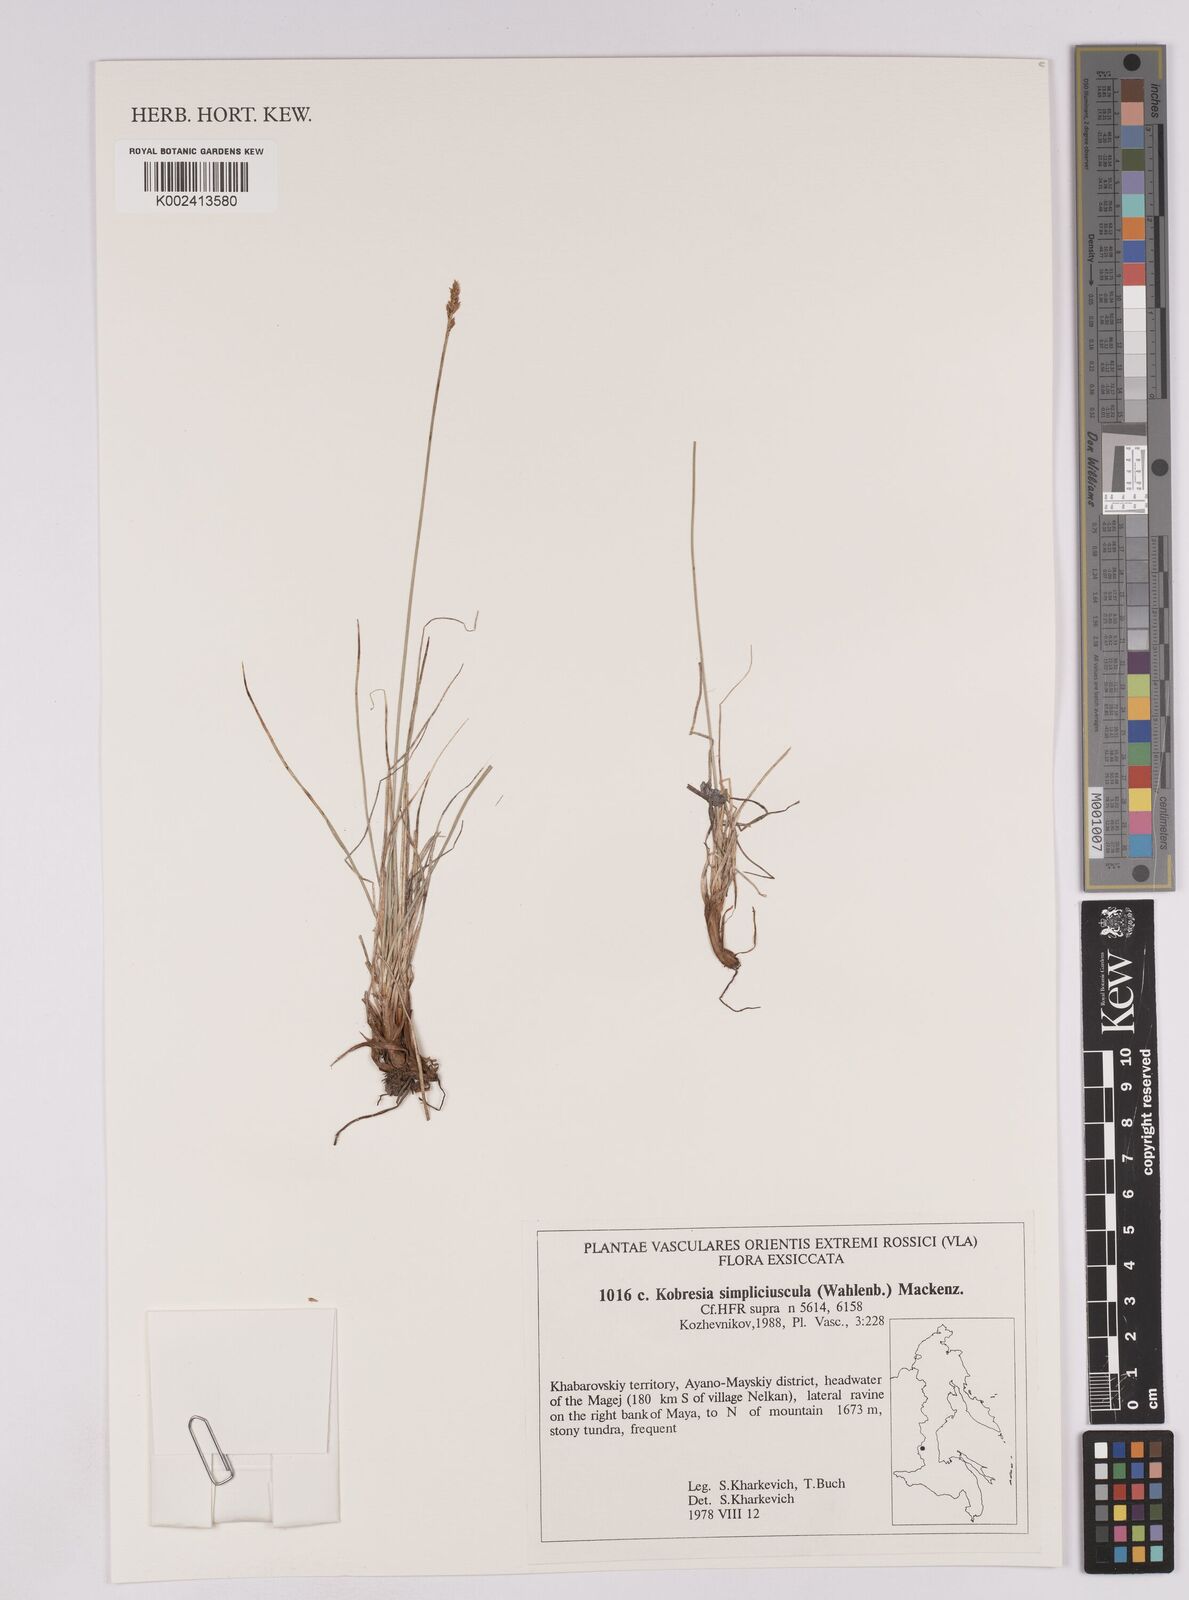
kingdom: Plantae
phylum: Tracheophyta
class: Liliopsida
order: Poales
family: Cyperaceae
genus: Carex
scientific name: Carex simpliciuscula
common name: Simple bog sedge
